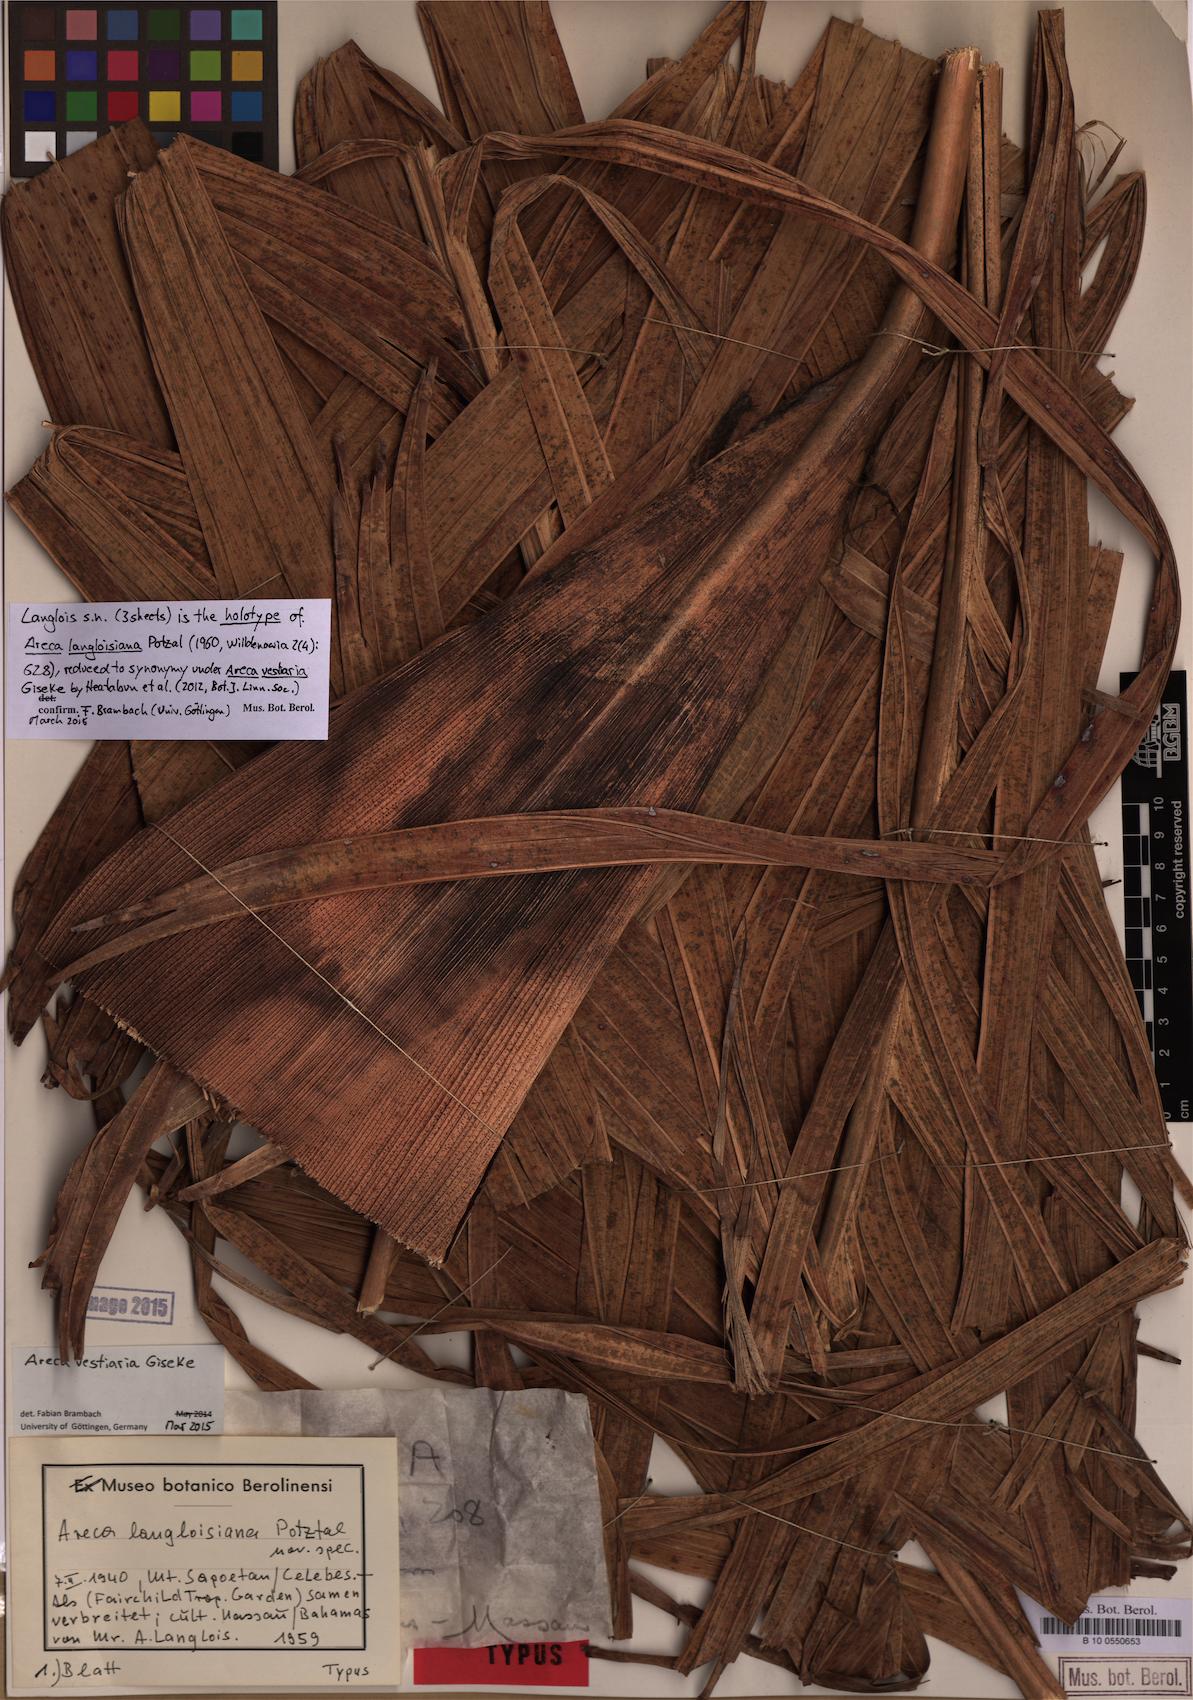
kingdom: Plantae
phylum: Tracheophyta
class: Liliopsida
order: Arecales
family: Arecaceae
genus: Areca
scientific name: Areca vestiaria
